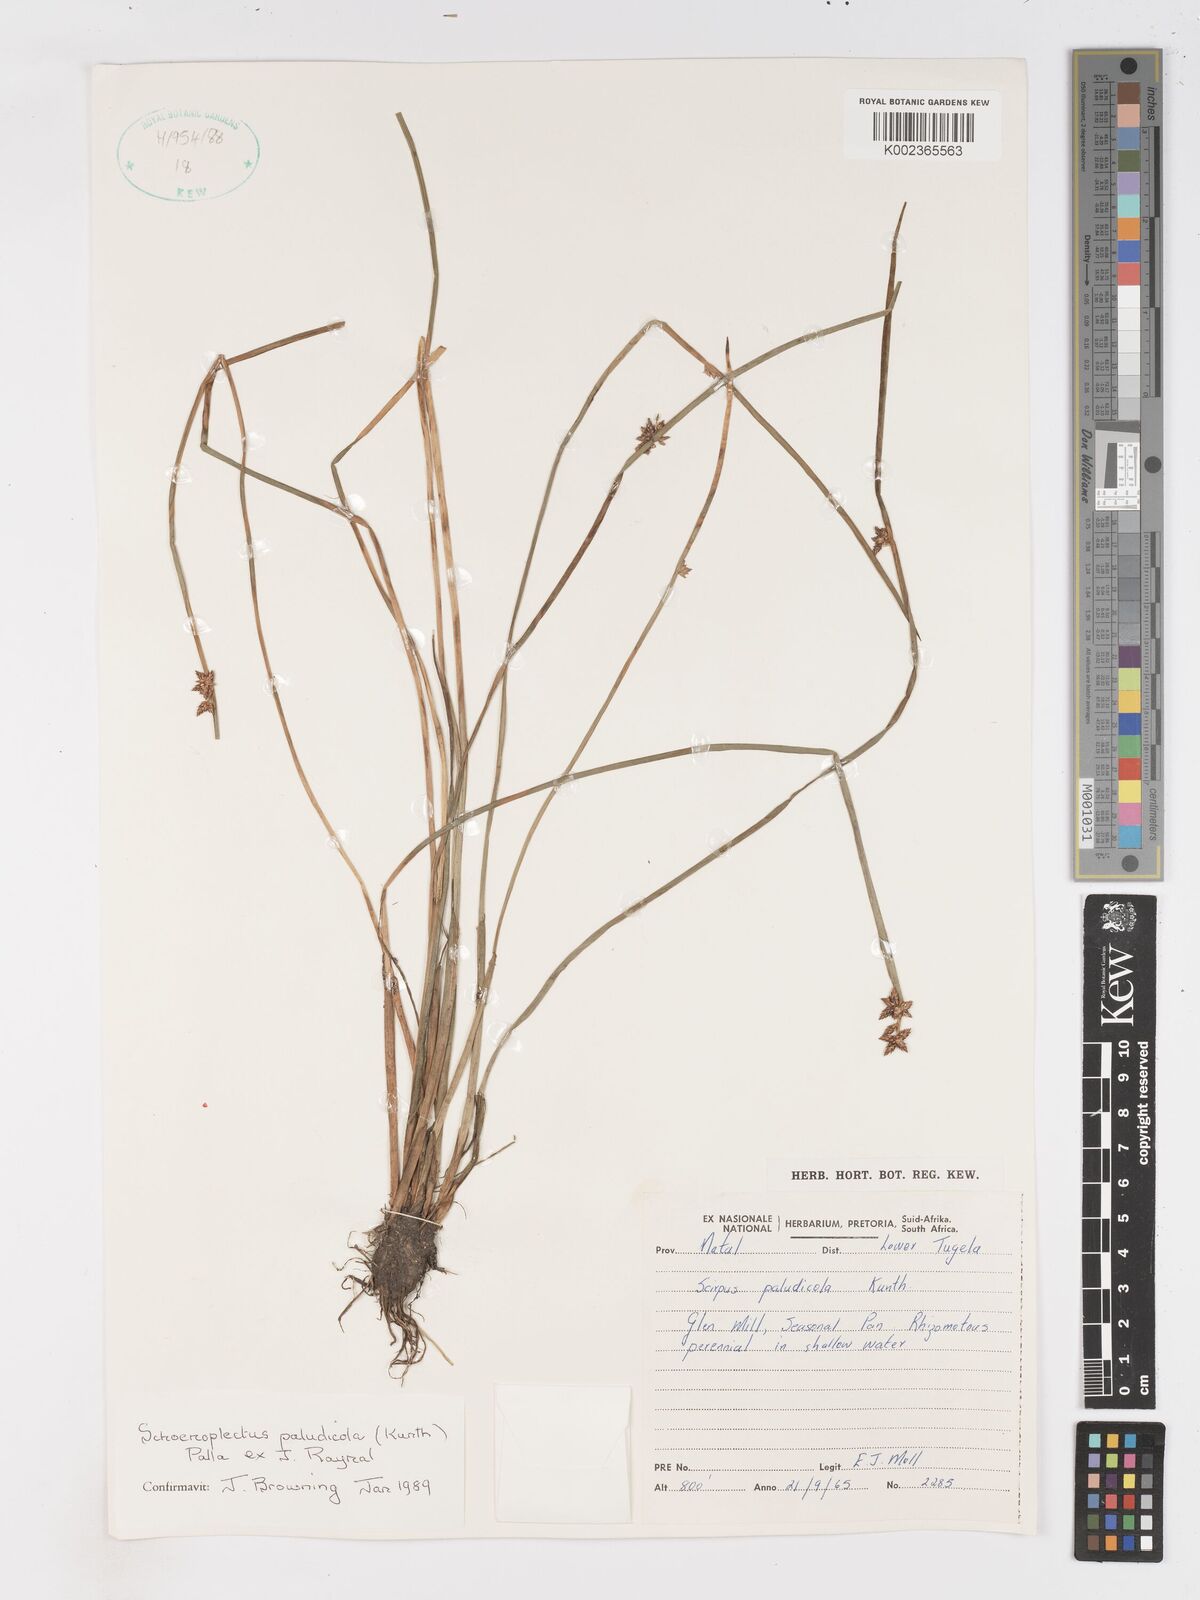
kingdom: Plantae
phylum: Tracheophyta
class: Liliopsida
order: Poales
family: Cyperaceae
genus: Schoenoplectiella
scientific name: Schoenoplectiella paludicola
